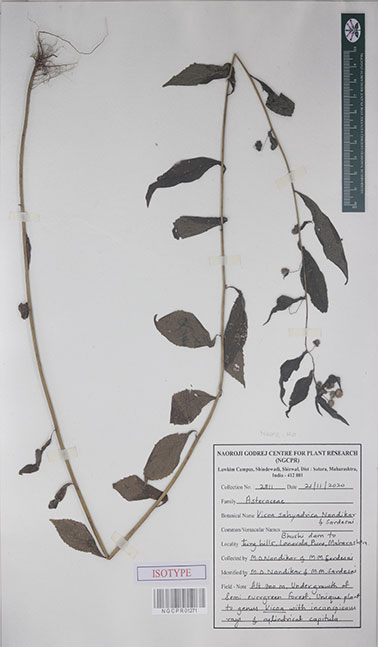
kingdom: Plantae
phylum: Tracheophyta
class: Magnoliopsida
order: Asterales
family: Asteraceae
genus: Vicoa
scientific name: Vicoa sahyadrica
